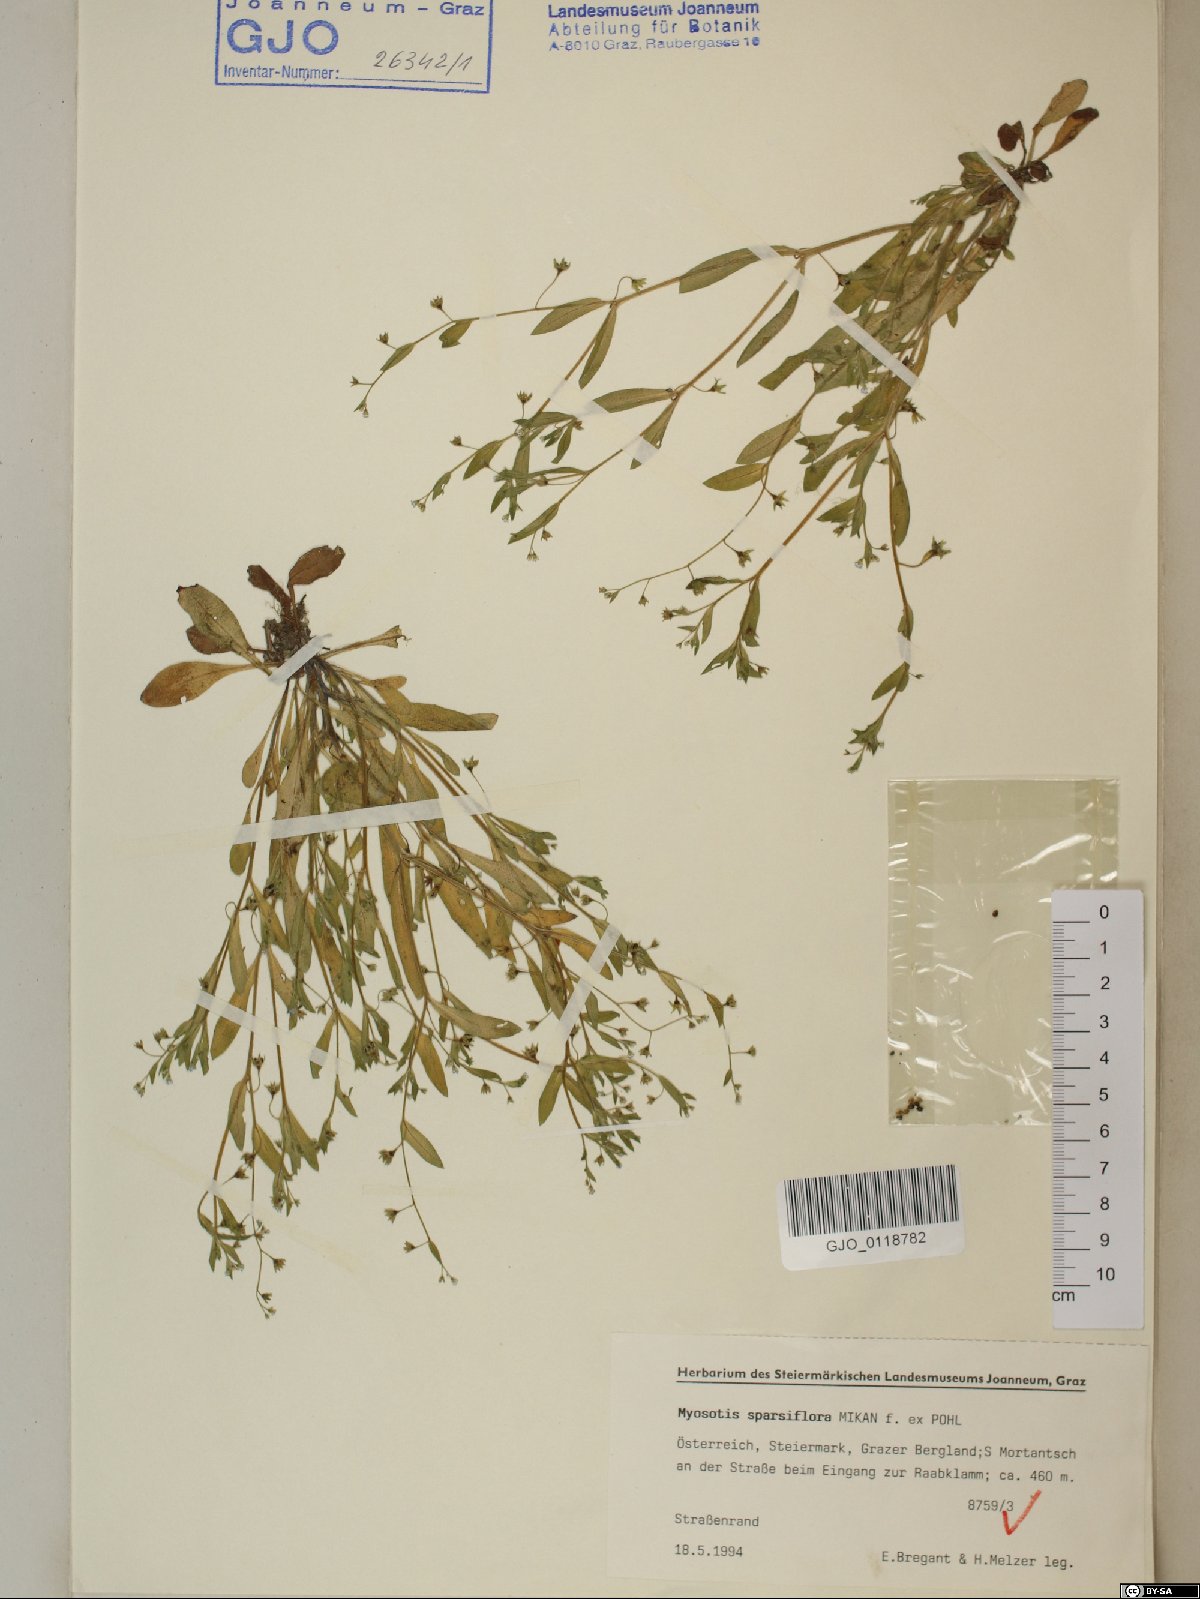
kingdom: Plantae
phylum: Tracheophyta
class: Magnoliopsida
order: Boraginales
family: Boraginaceae
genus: Myosotis
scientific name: Myosotis sparsiflora
